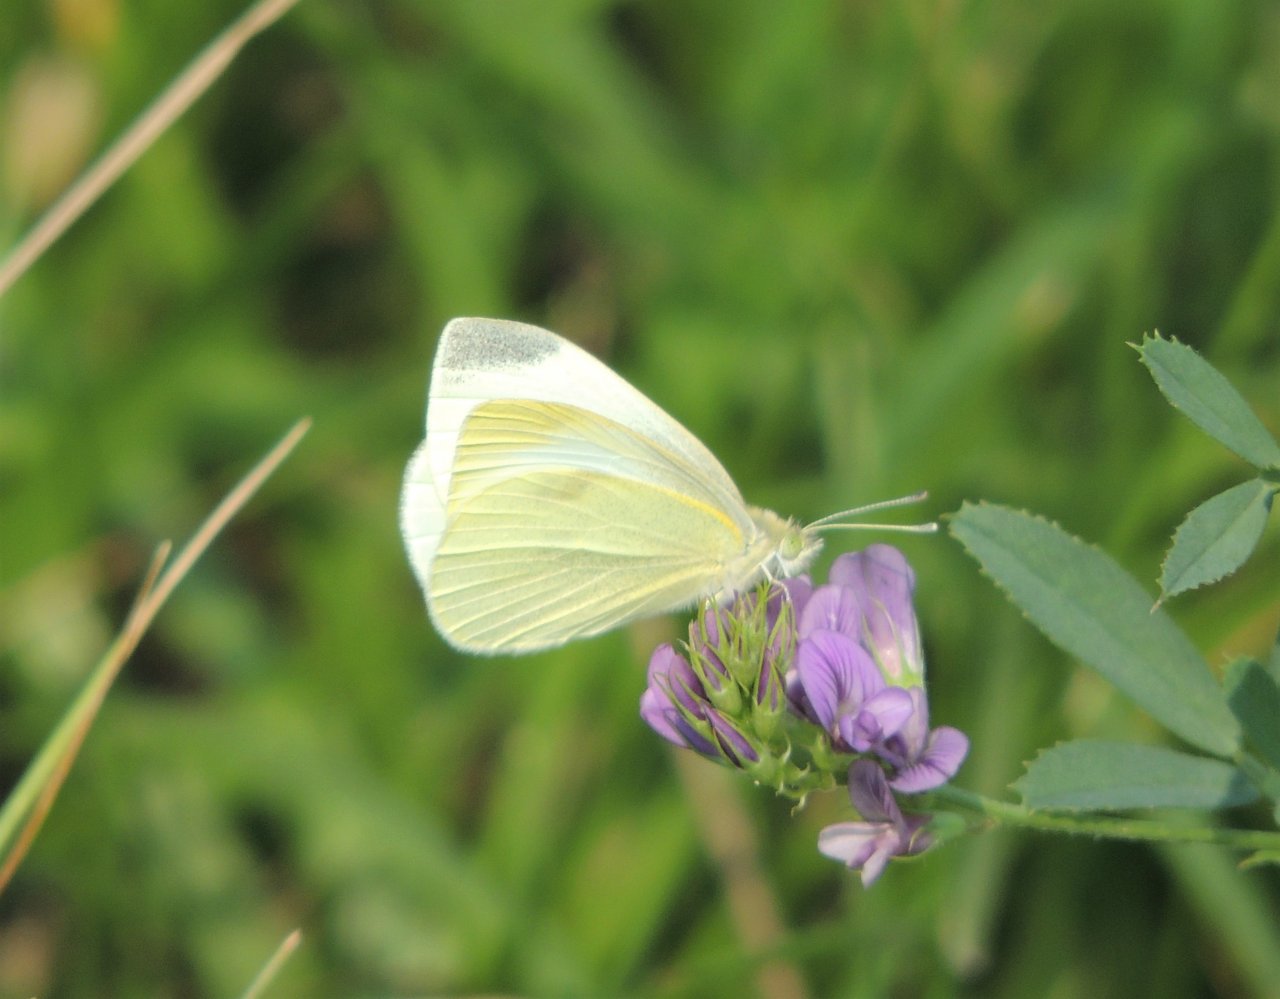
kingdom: Animalia
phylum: Arthropoda
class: Insecta
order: Lepidoptera
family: Pieridae
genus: Pieris
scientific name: Pieris rapae
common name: Cabbage White
